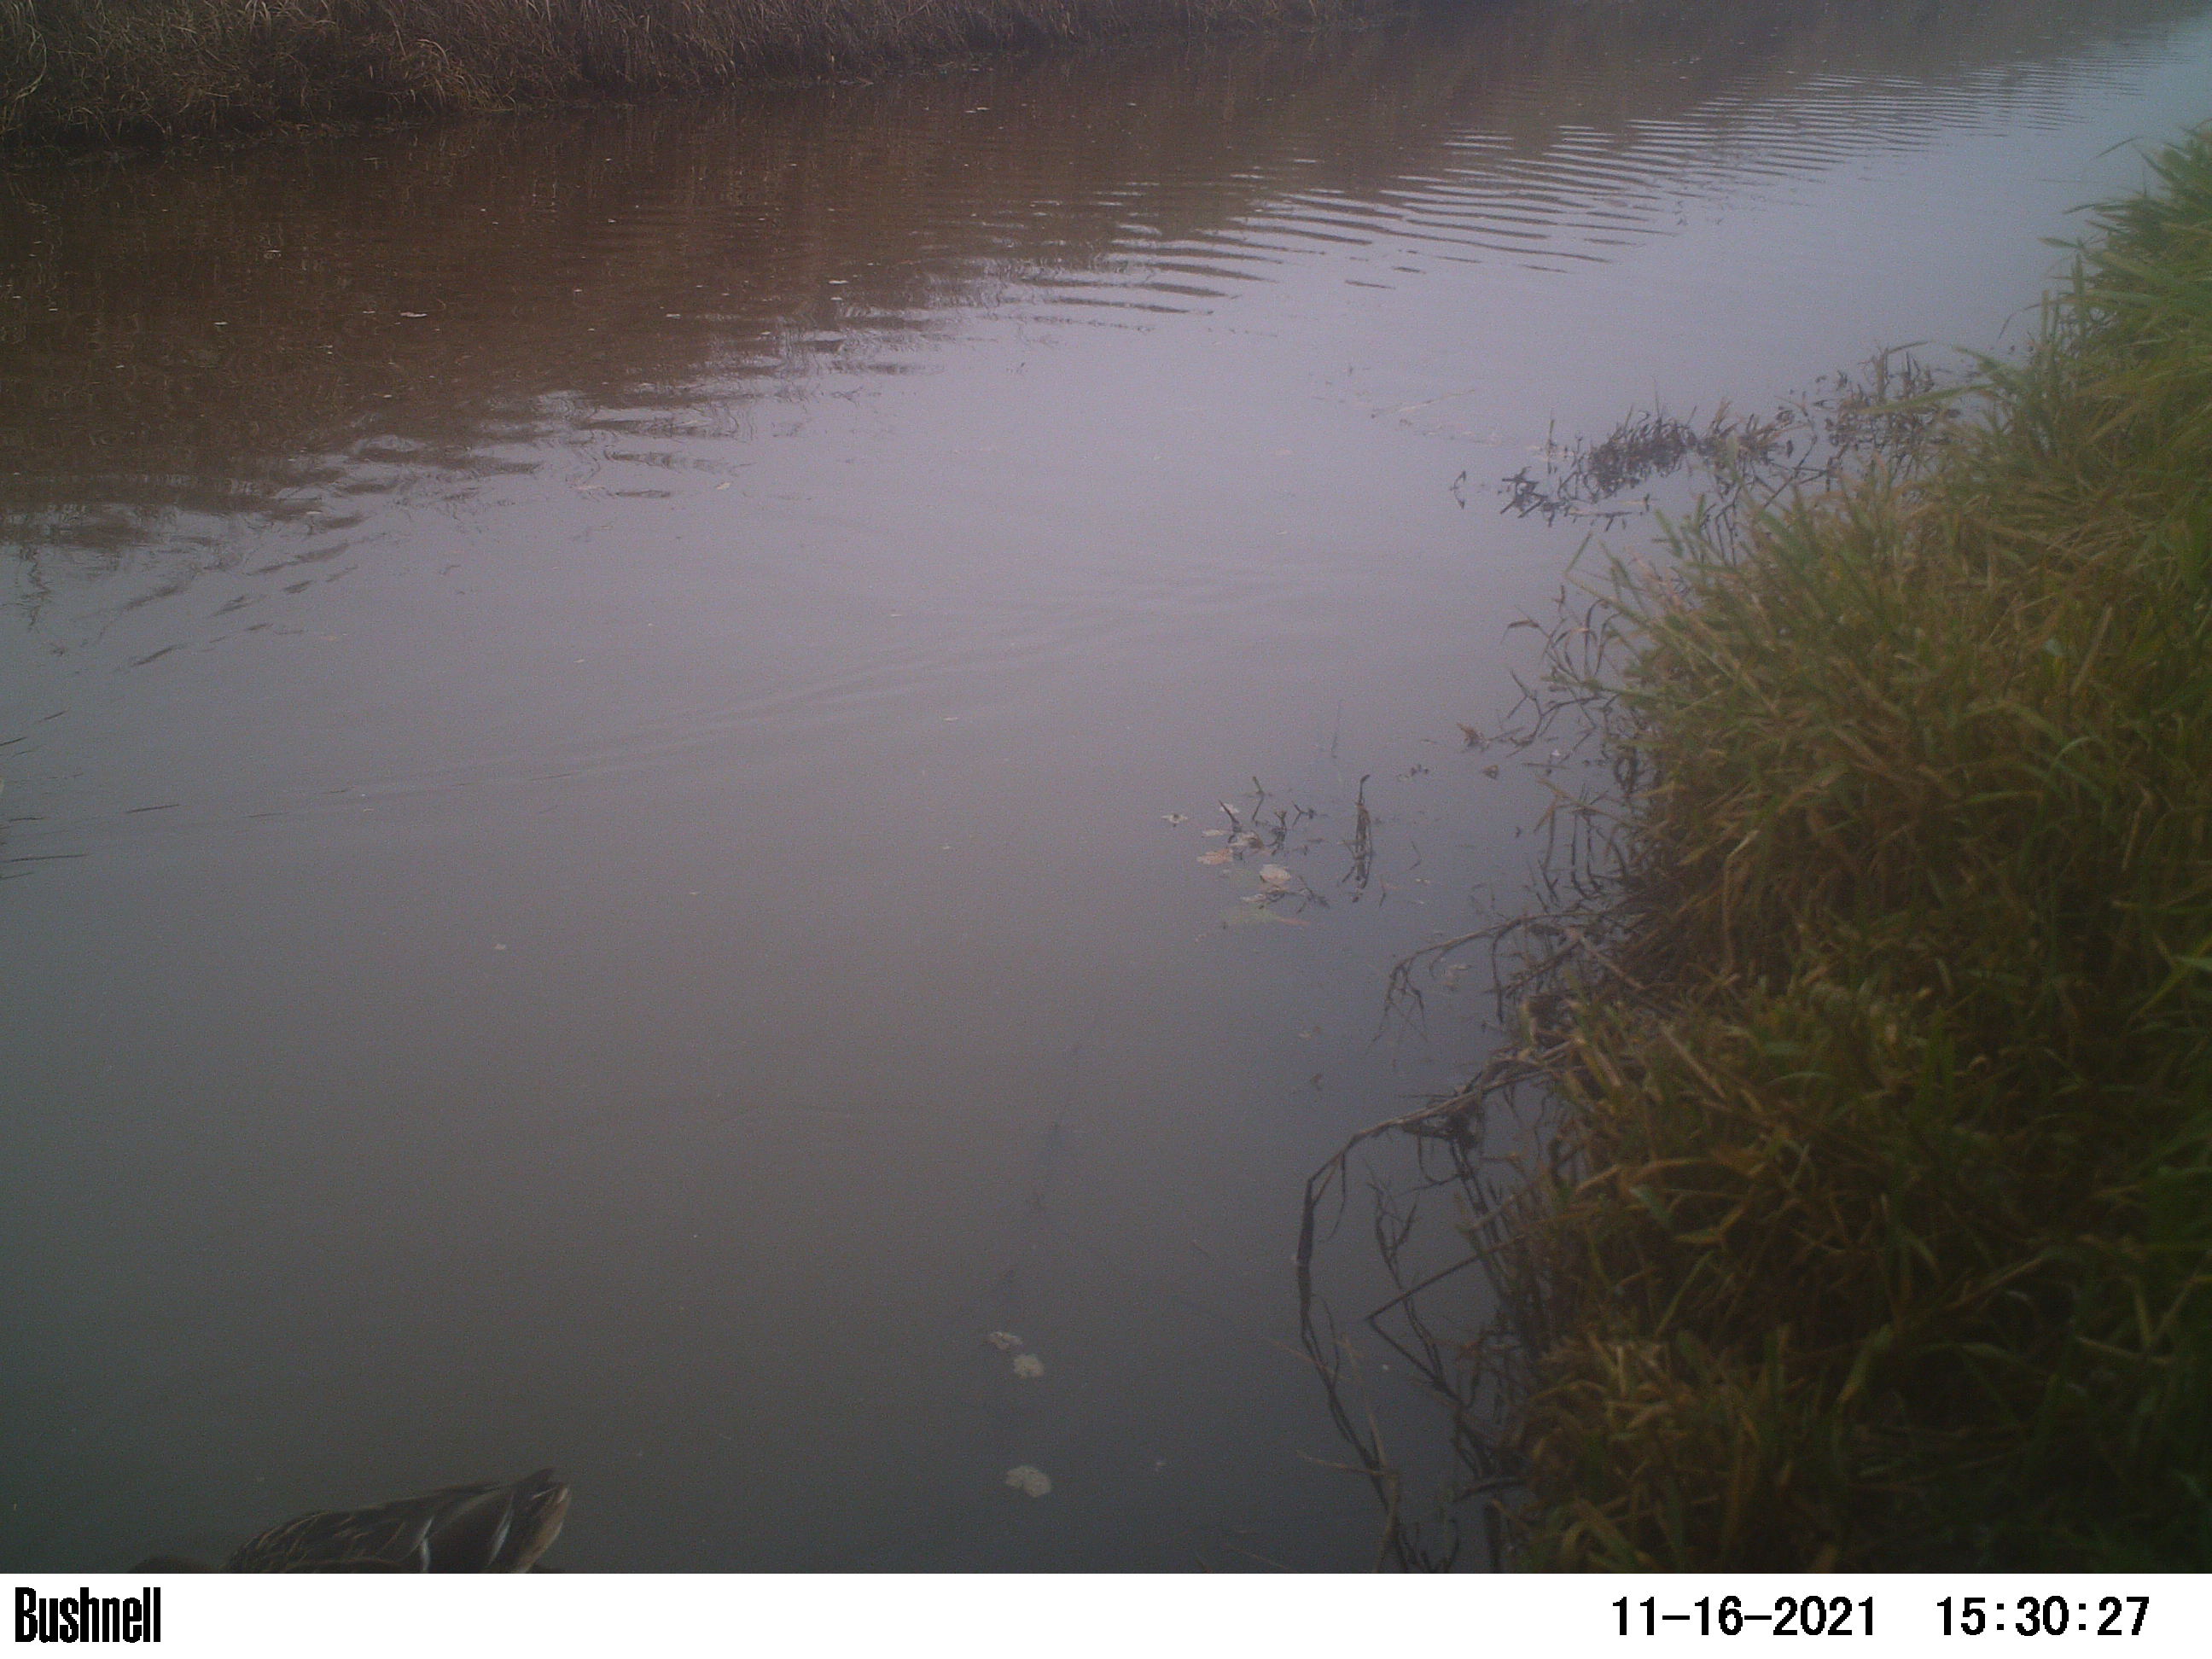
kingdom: Animalia
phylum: Chordata
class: Aves
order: Anseriformes
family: Anatidae
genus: Anas
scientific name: Anas
